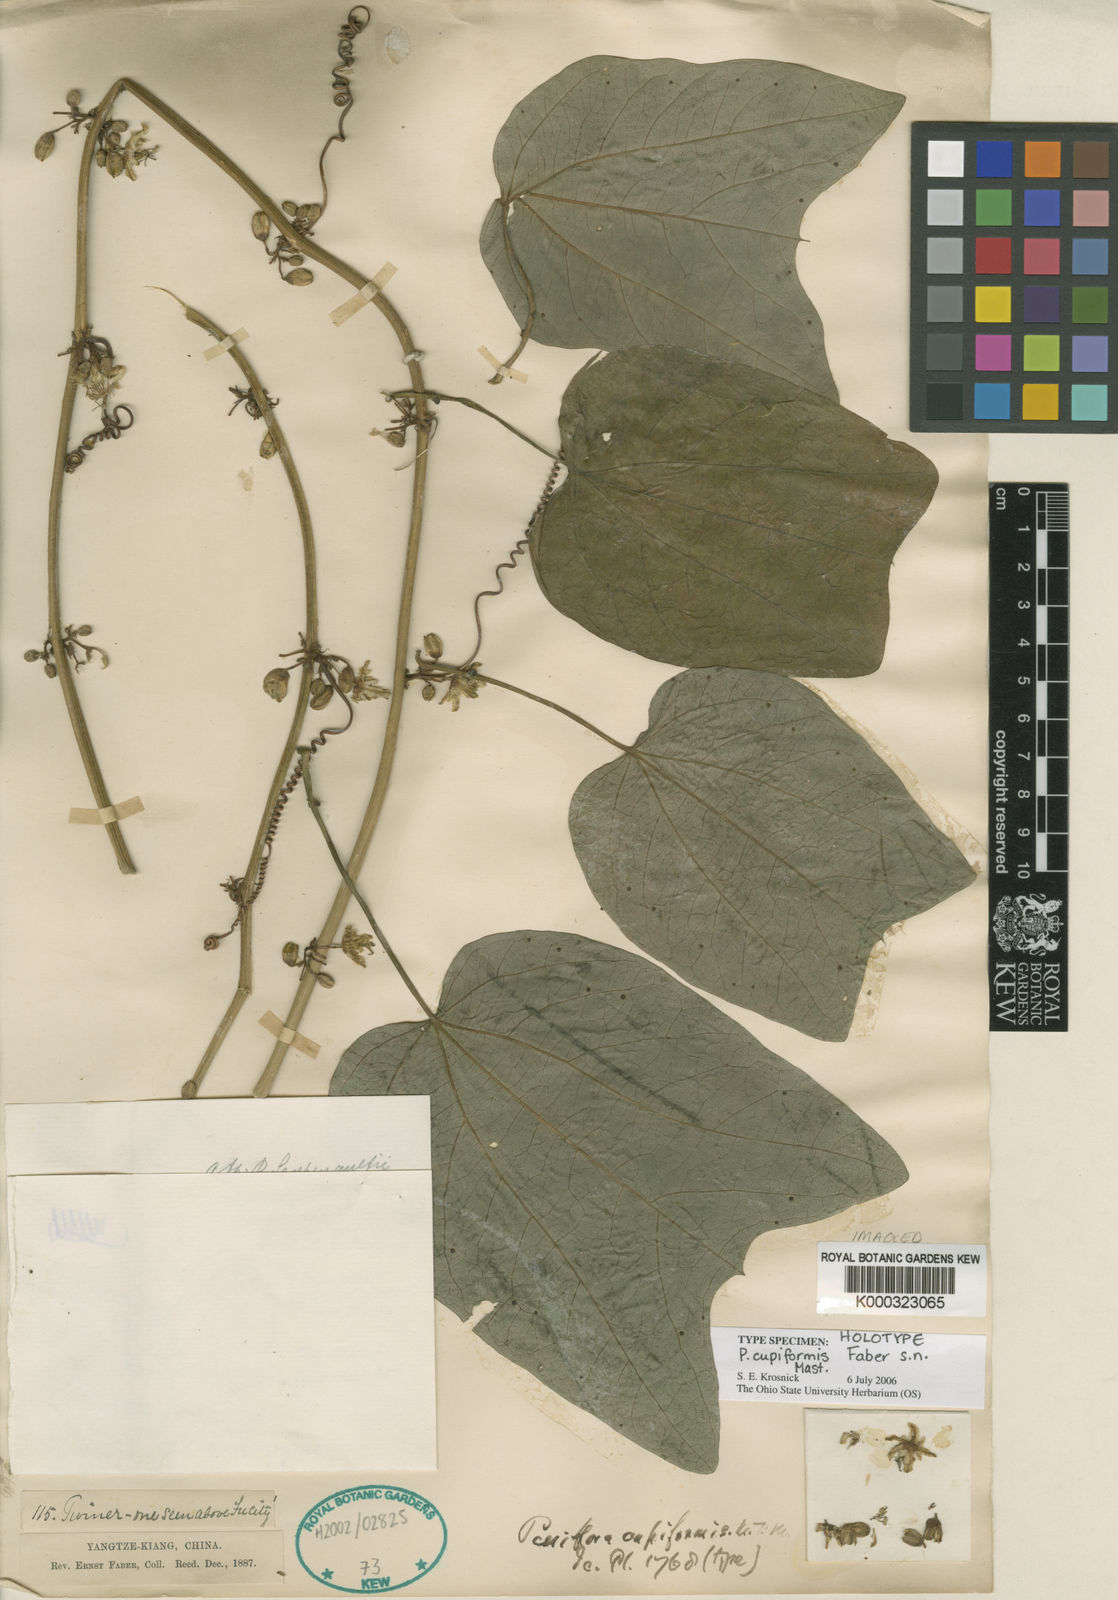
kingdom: Plantae
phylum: Tracheophyta
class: Magnoliopsida
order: Malpighiales
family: Passifloraceae
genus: Passiflora
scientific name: Passiflora cupiformis
